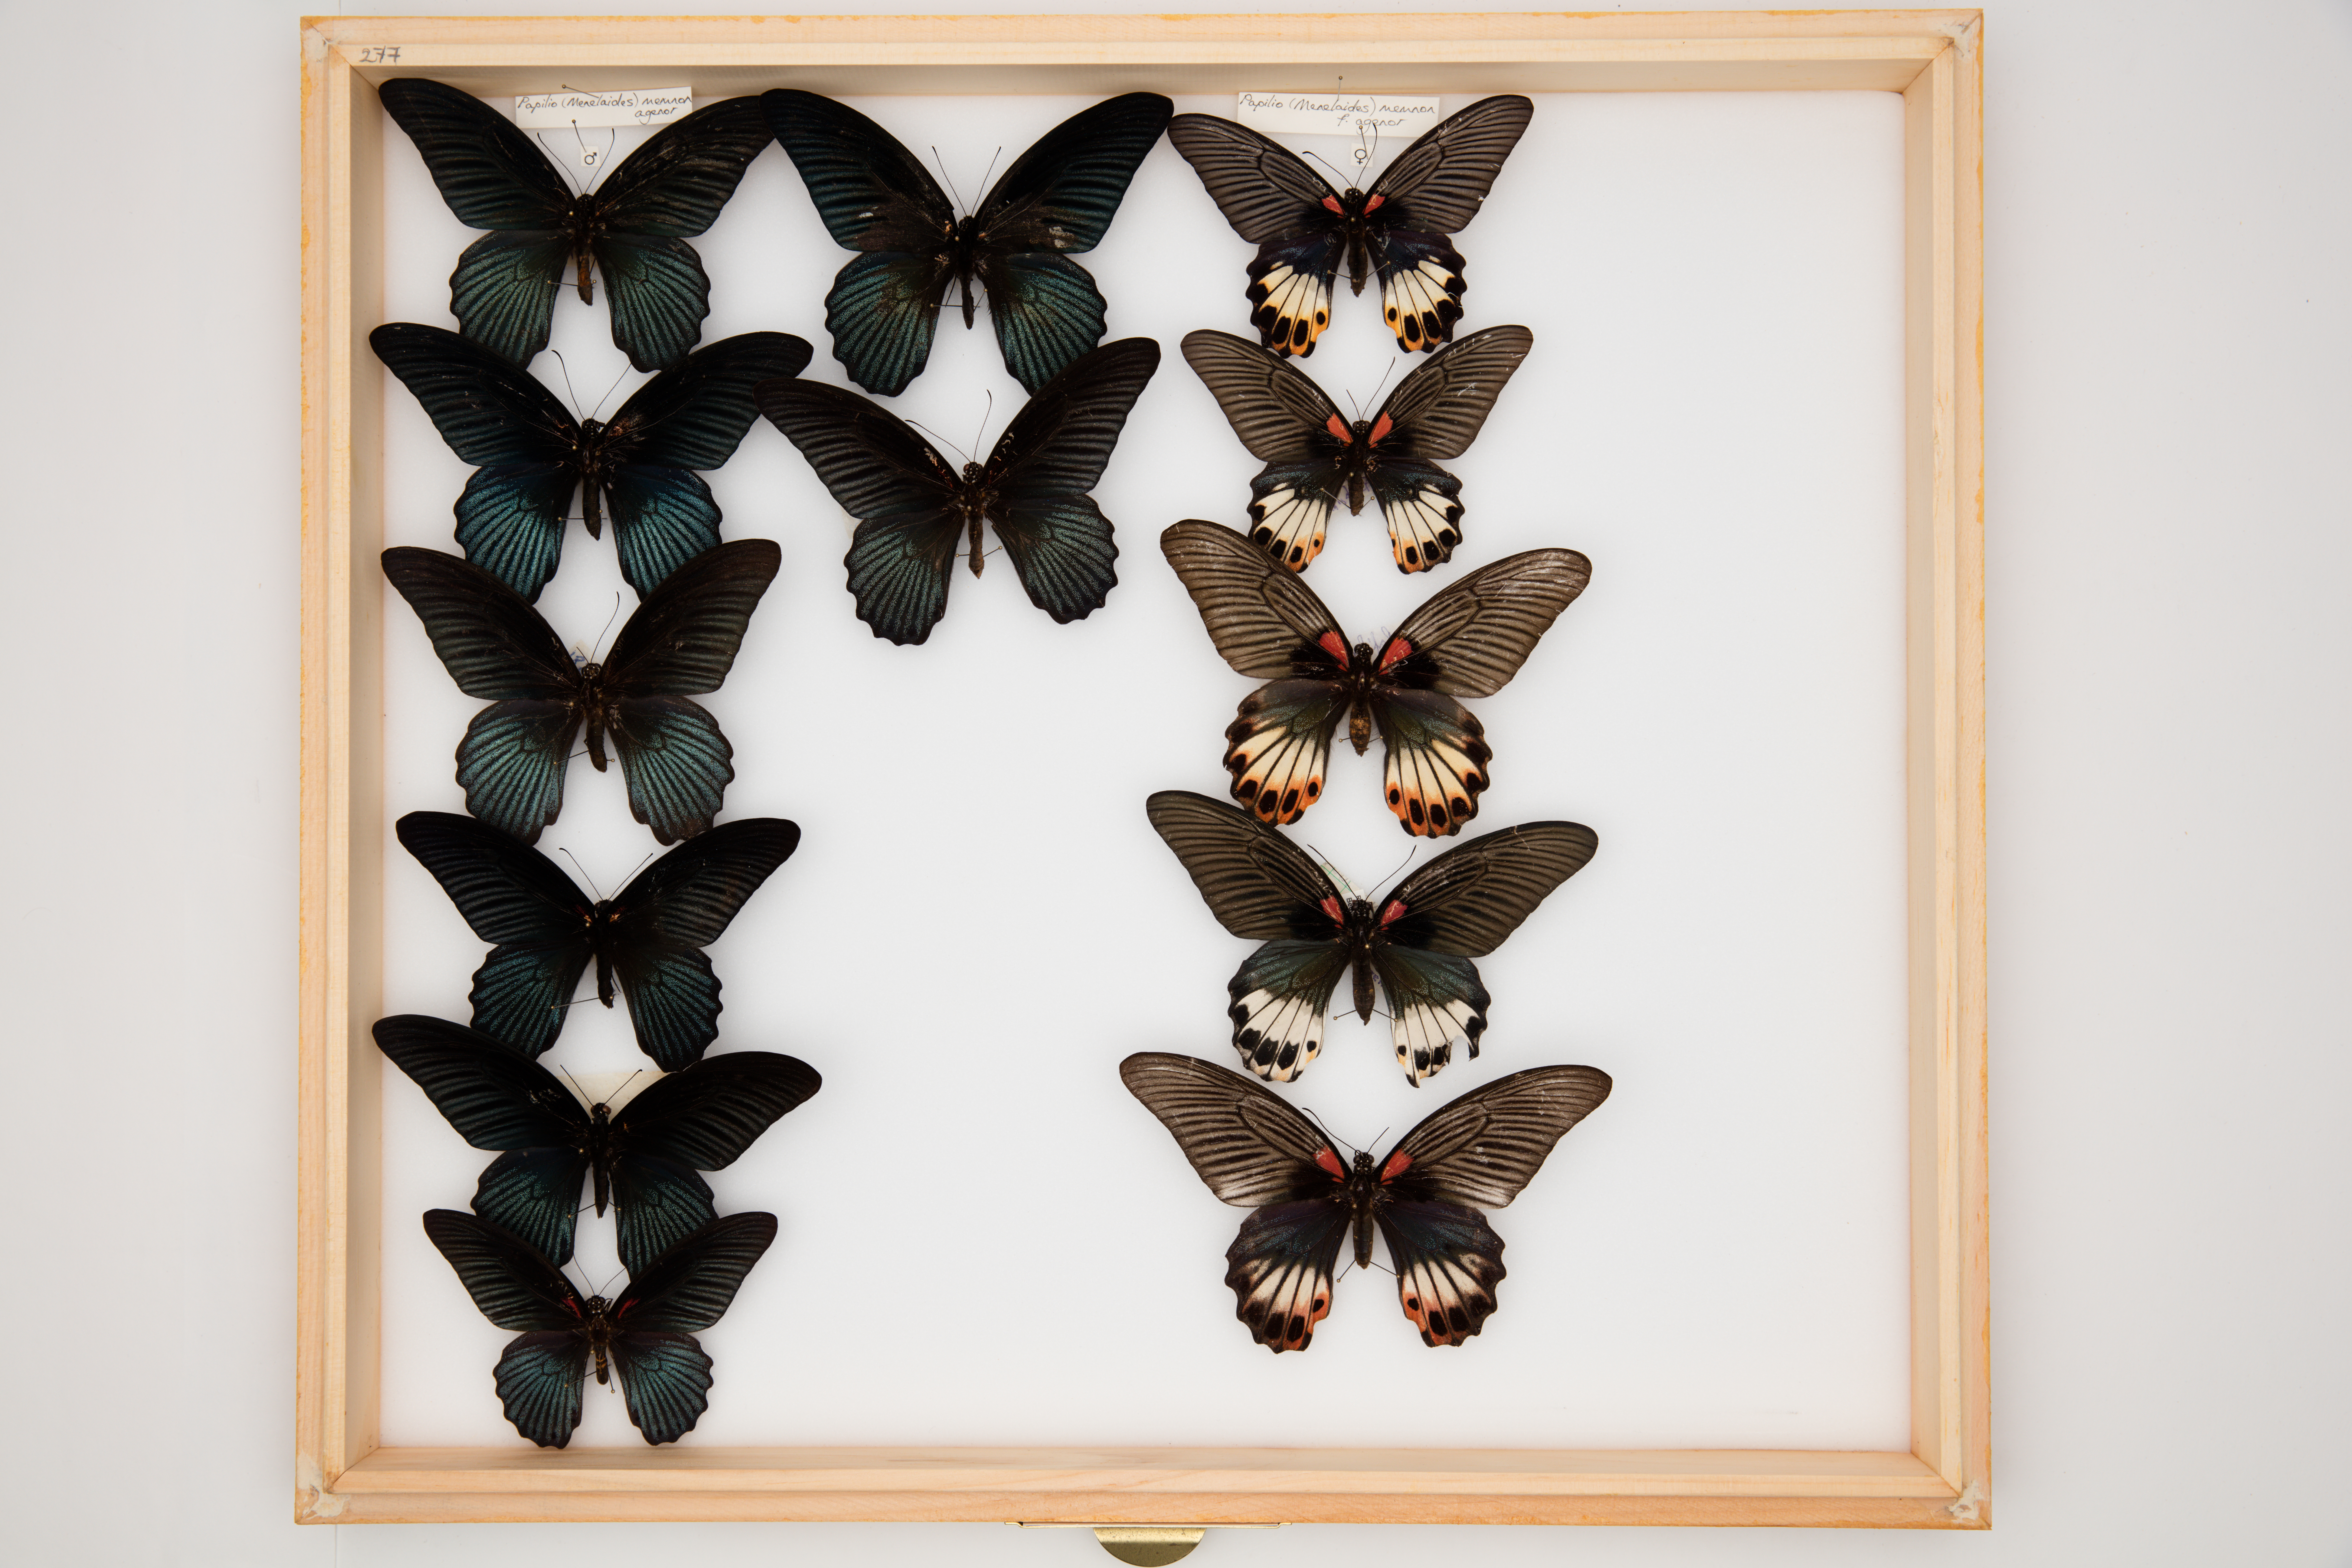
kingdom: Animalia
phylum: Arthropoda
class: Insecta
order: Lepidoptera
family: Papilionidae
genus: Papilio
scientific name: Papilio memnon
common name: Great mormon
